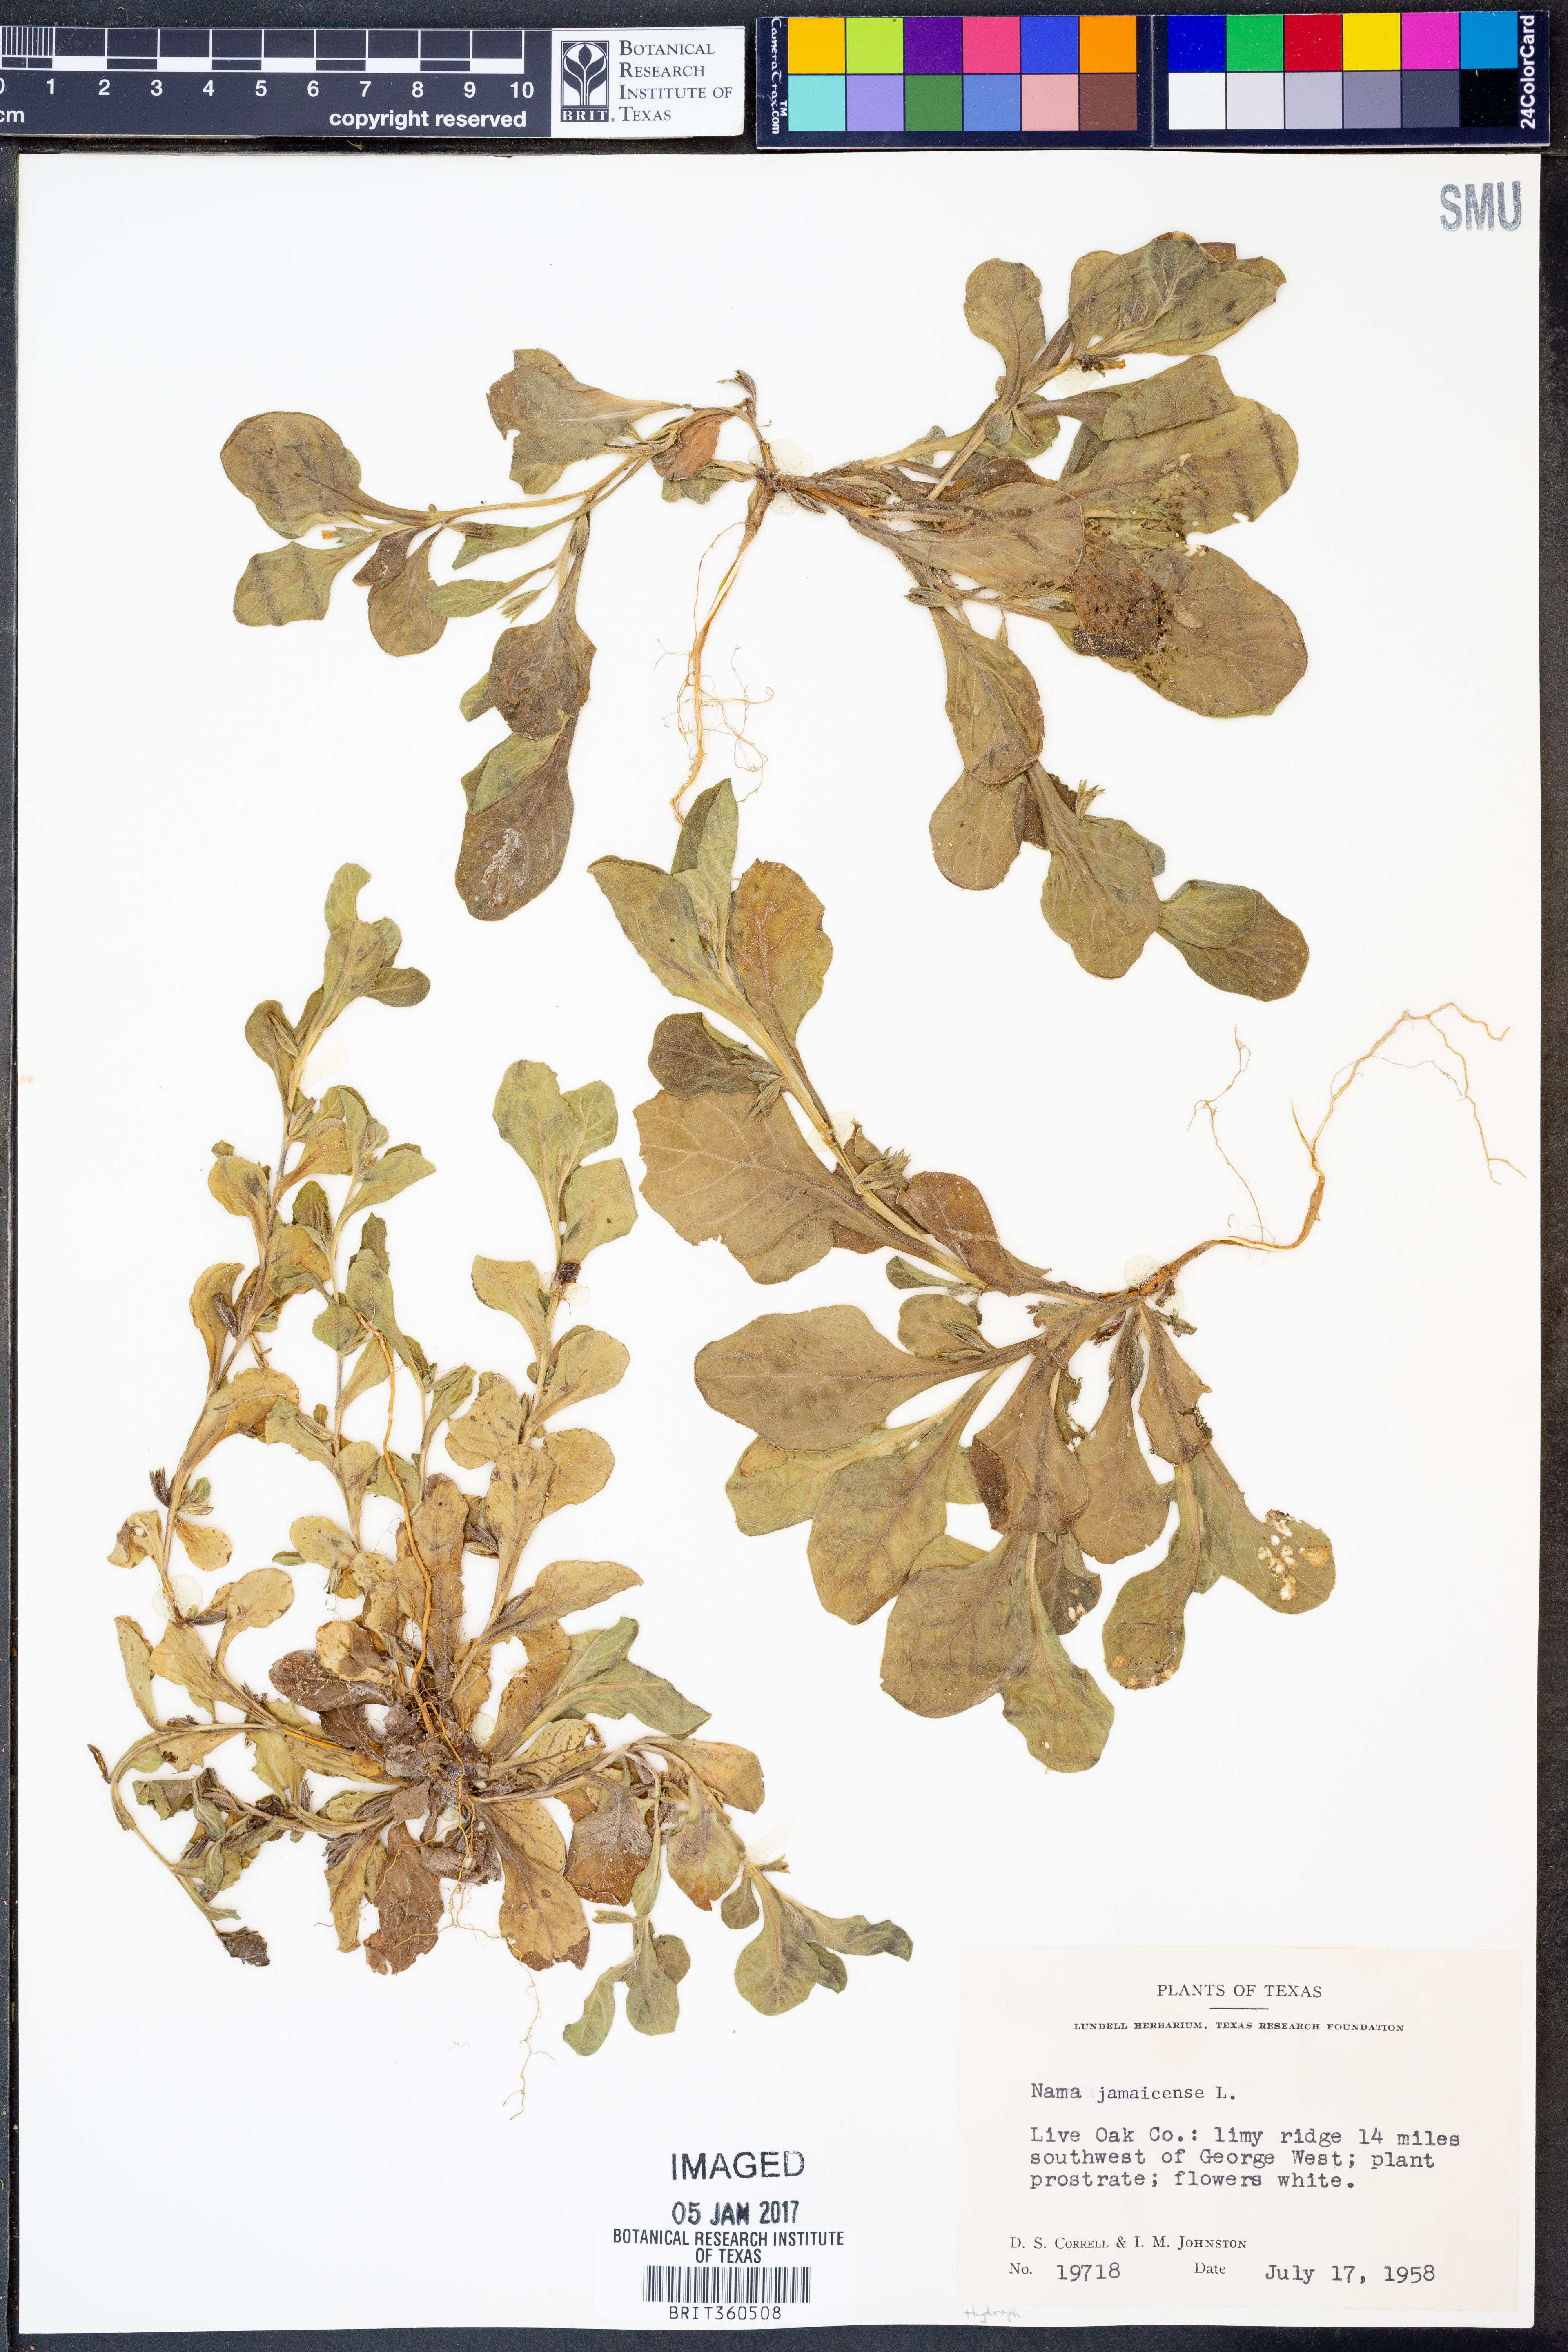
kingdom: Plantae
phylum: Tracheophyta
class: Magnoliopsida
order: Boraginales
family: Namaceae
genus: Nama
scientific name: Nama jamaicense
